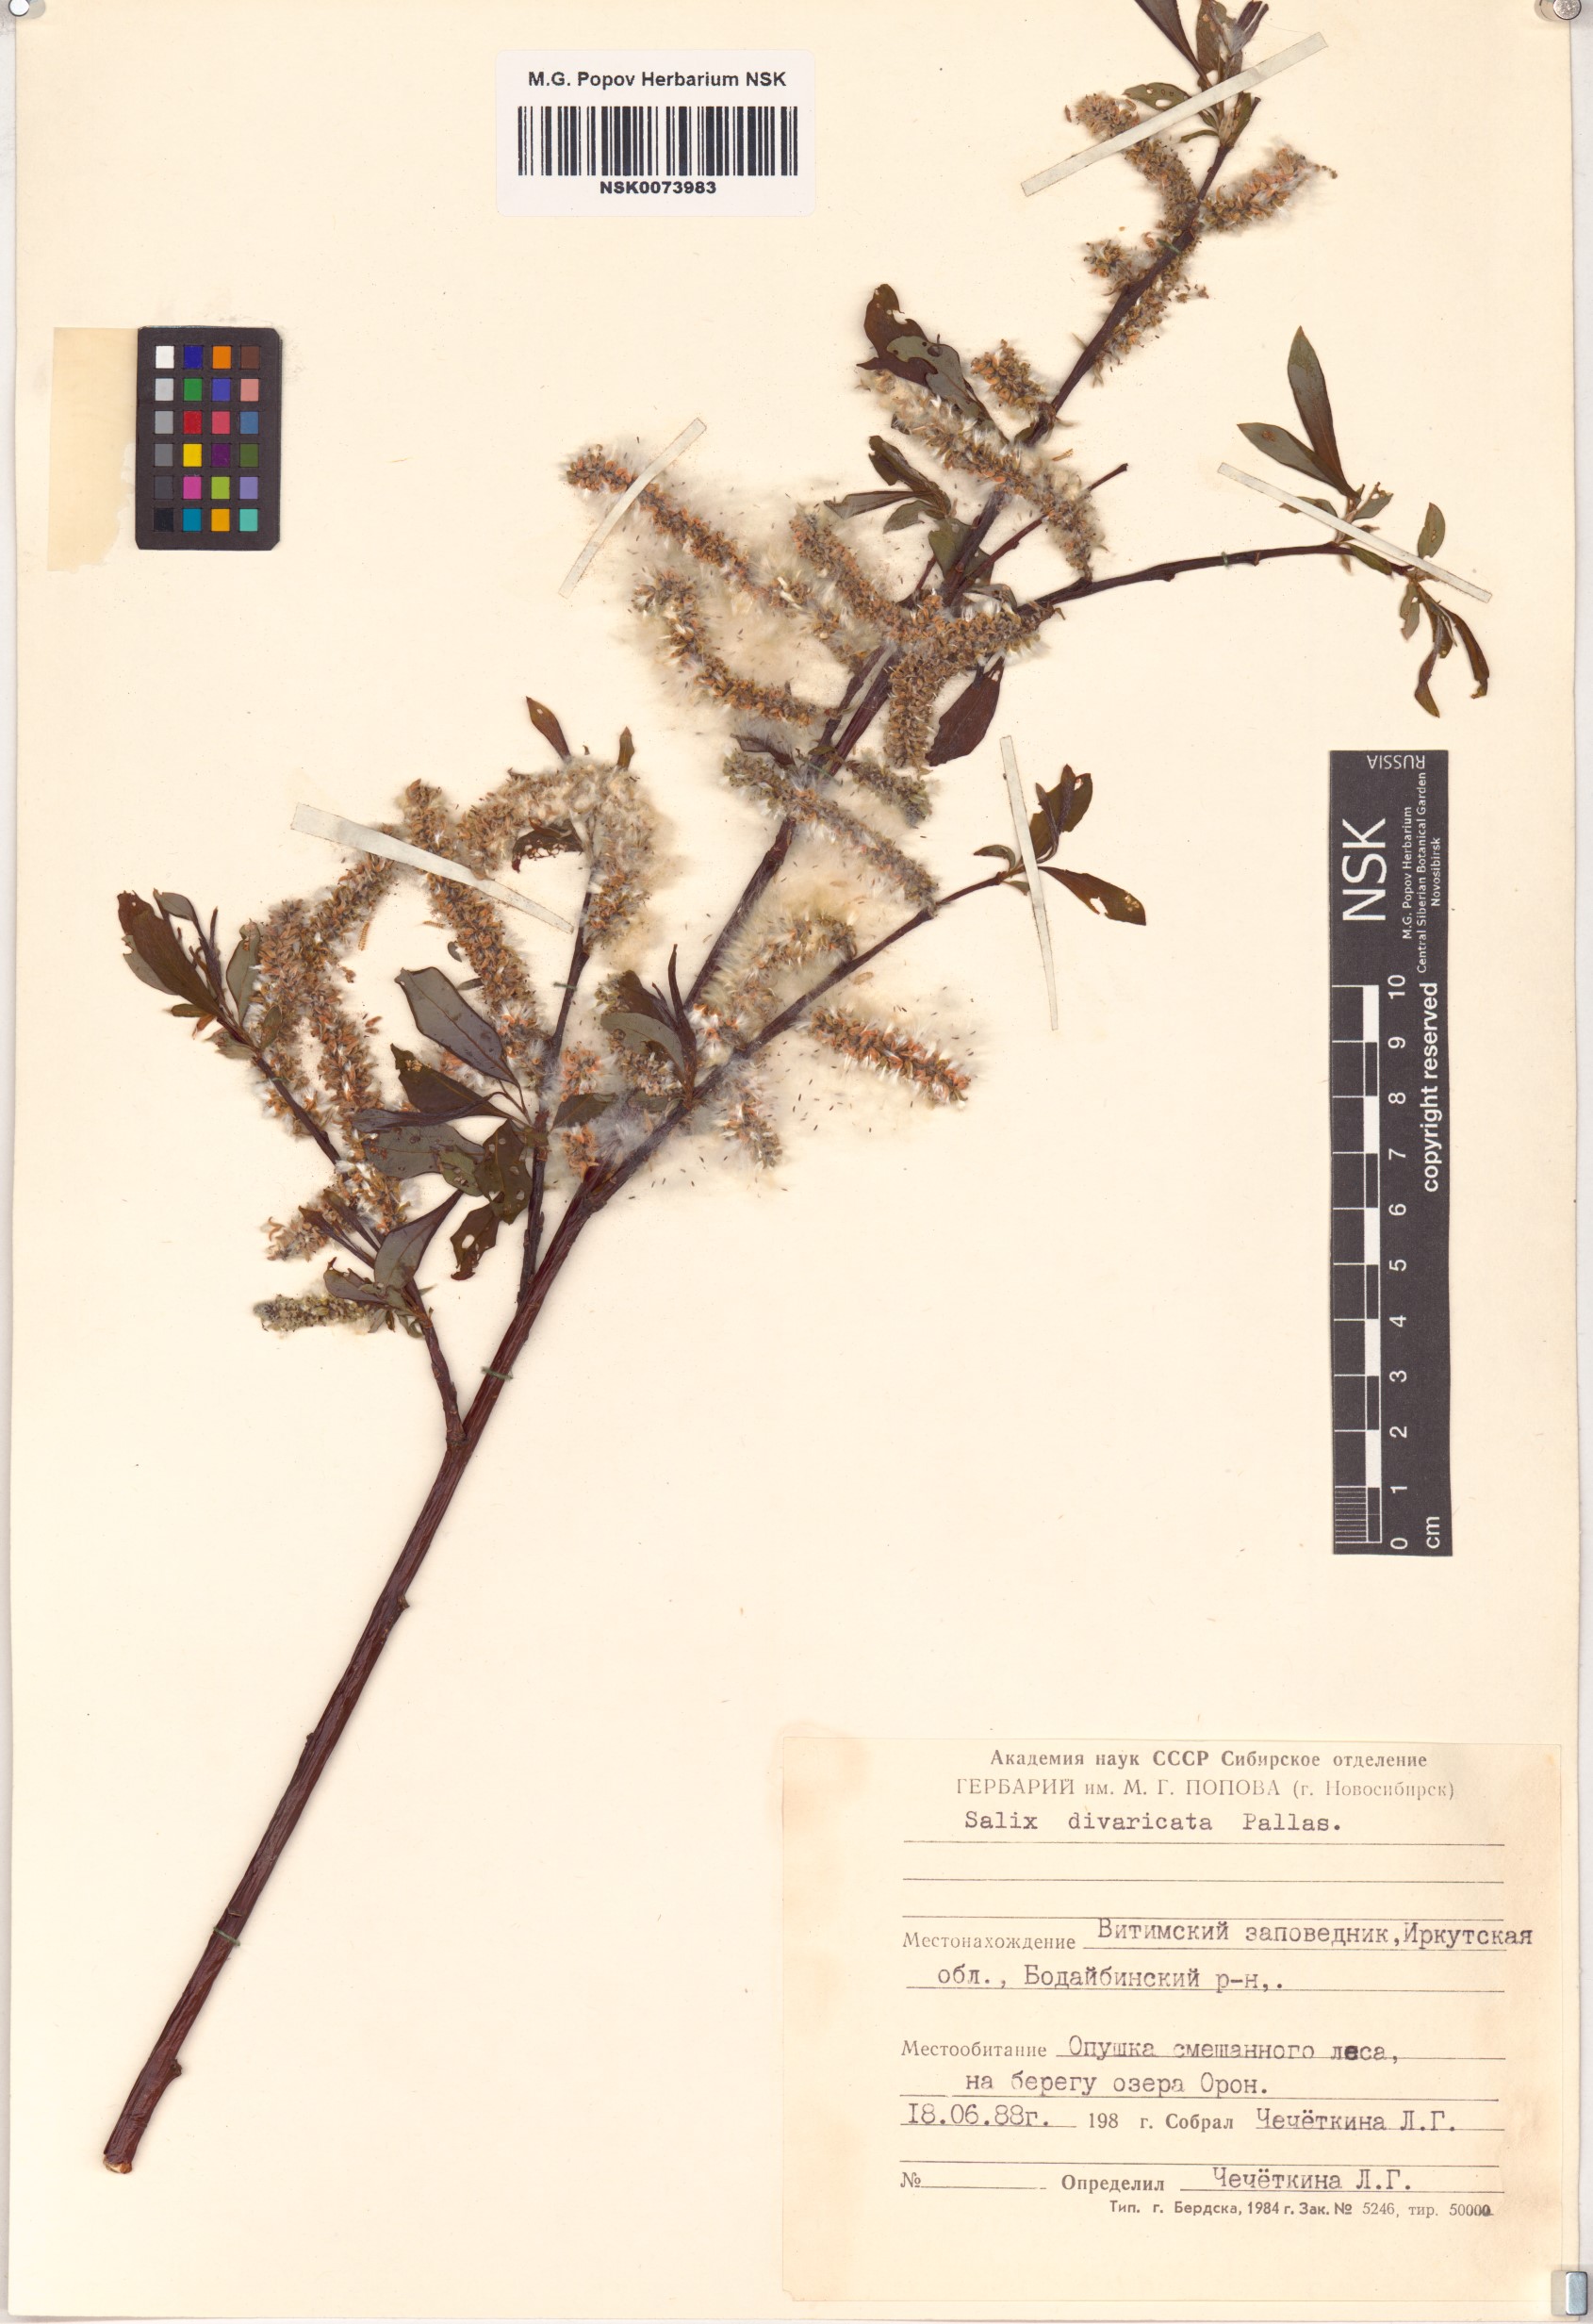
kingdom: Plantae
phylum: Tracheophyta
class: Magnoliopsida
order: Malpighiales
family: Salicaceae
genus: Salix
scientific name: Salix divaricata
